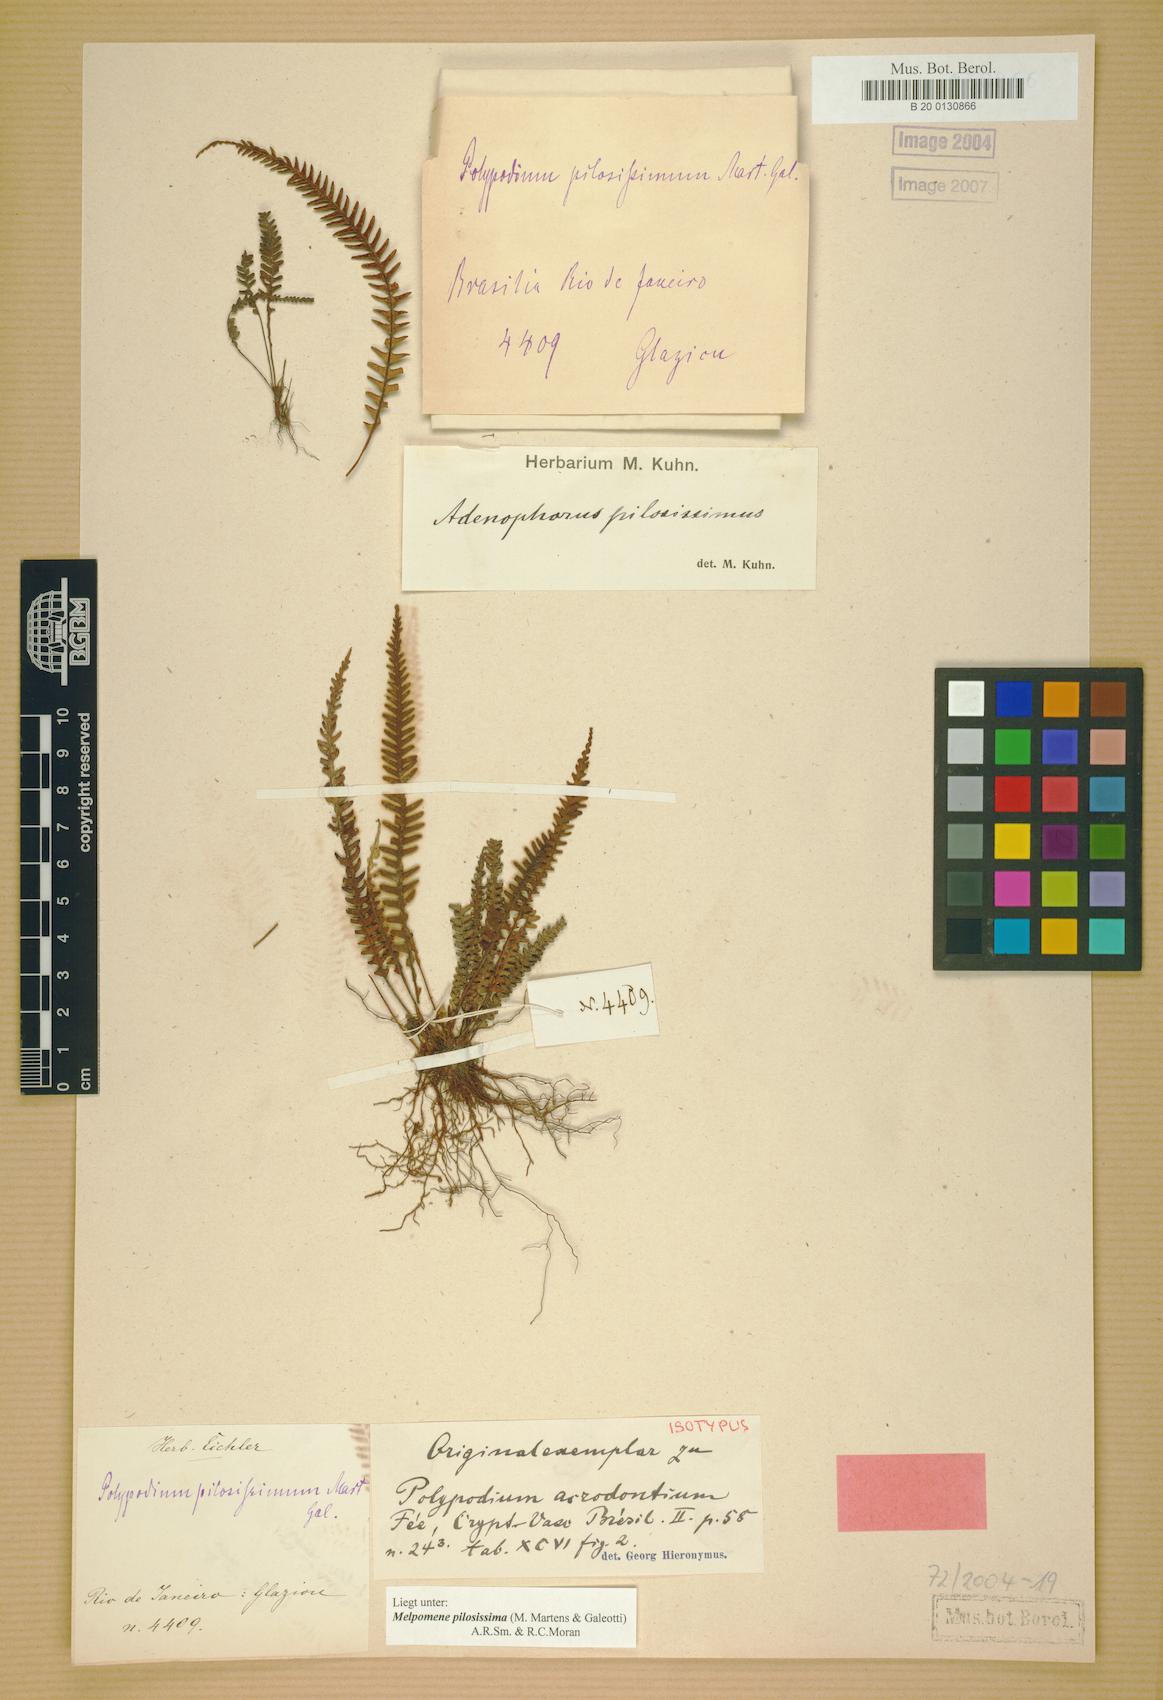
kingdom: Plantae
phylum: Tracheophyta
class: Polypodiopsida
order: Polypodiales
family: Polypodiaceae
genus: Melpomene
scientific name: Melpomene pilosissima
